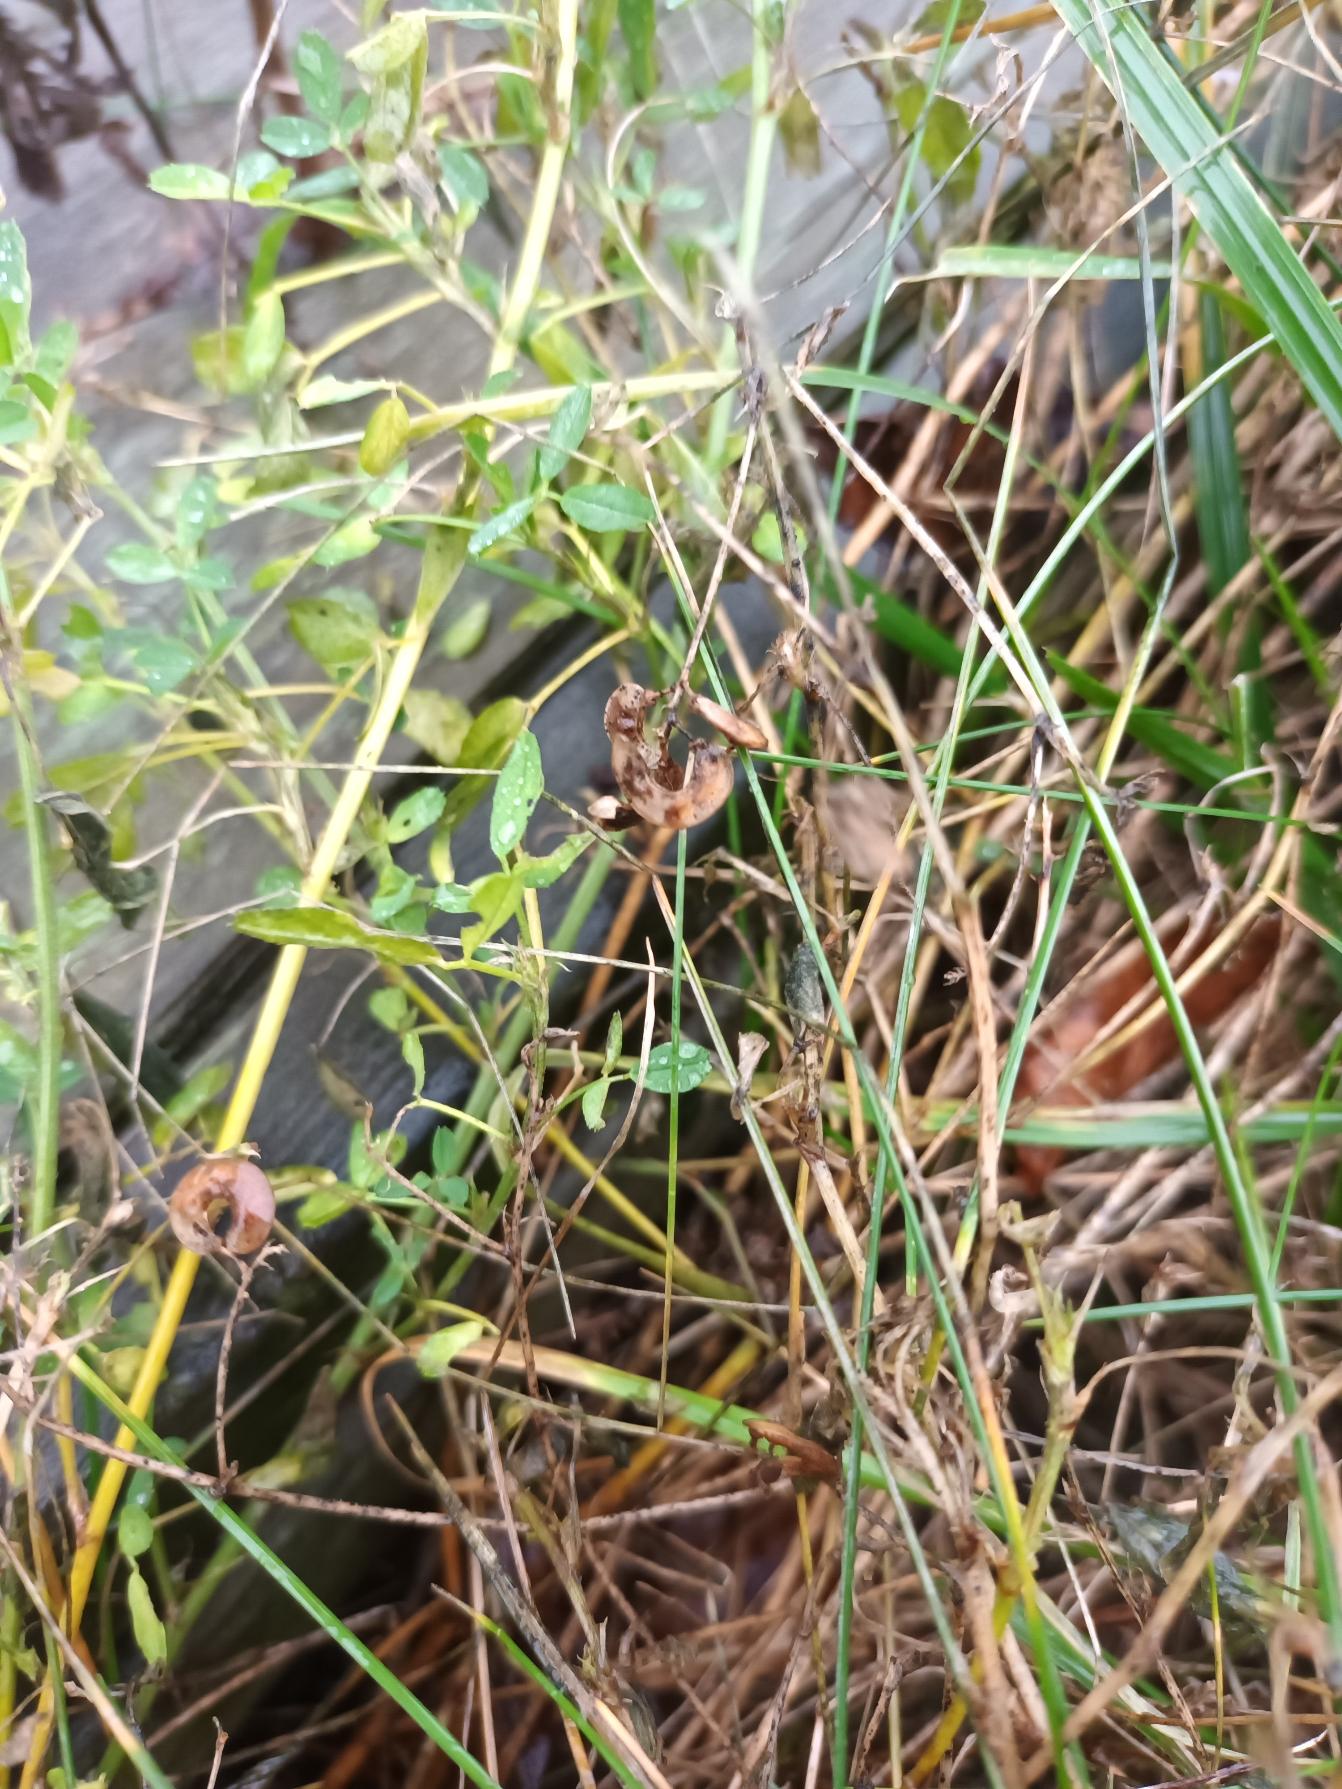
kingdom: Plantae
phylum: Tracheophyta
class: Magnoliopsida
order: Fabales
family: Fabaceae
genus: Medicago
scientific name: Medicago falcata
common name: Segl-sneglebælg
